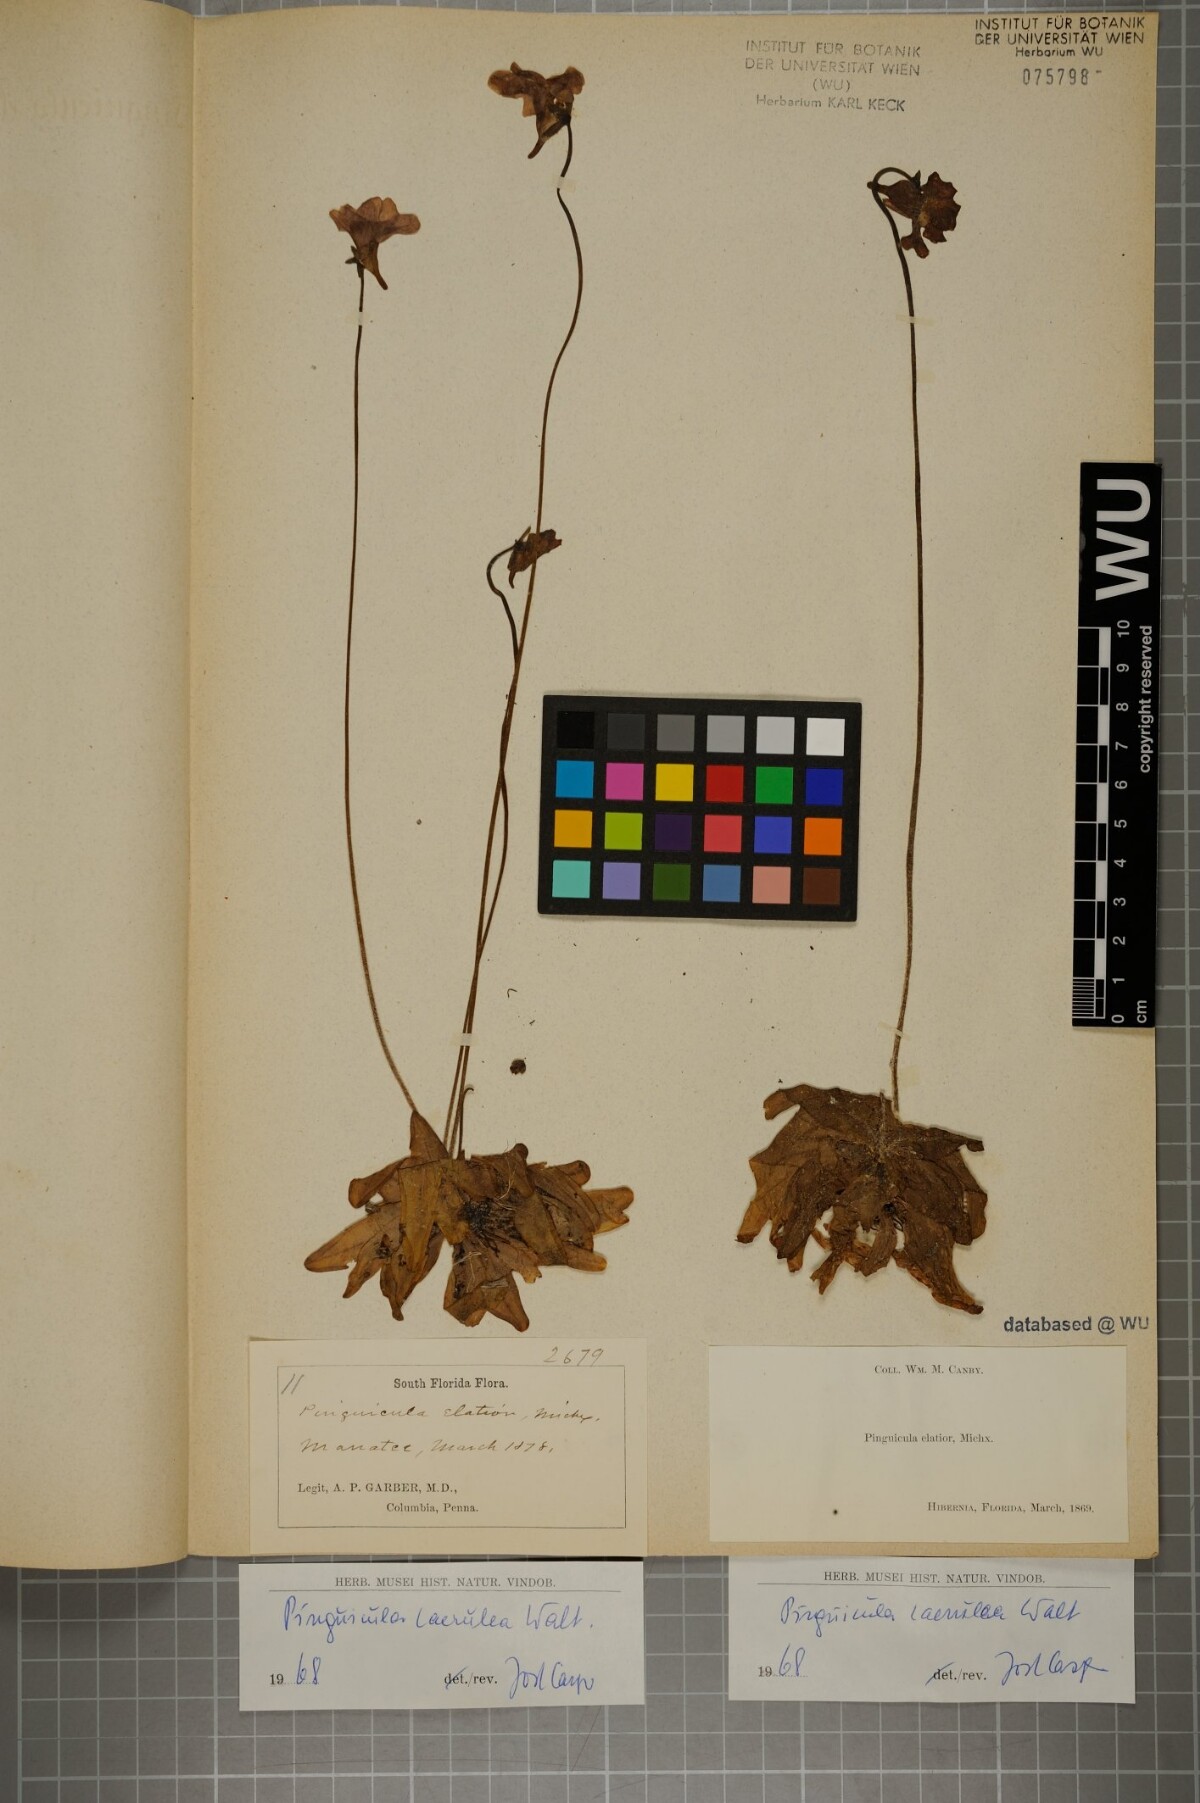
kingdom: Plantae
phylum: Tracheophyta
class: Magnoliopsida
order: Lamiales
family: Lentibulariaceae
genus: Pinguicula
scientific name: Pinguicula caerulea
